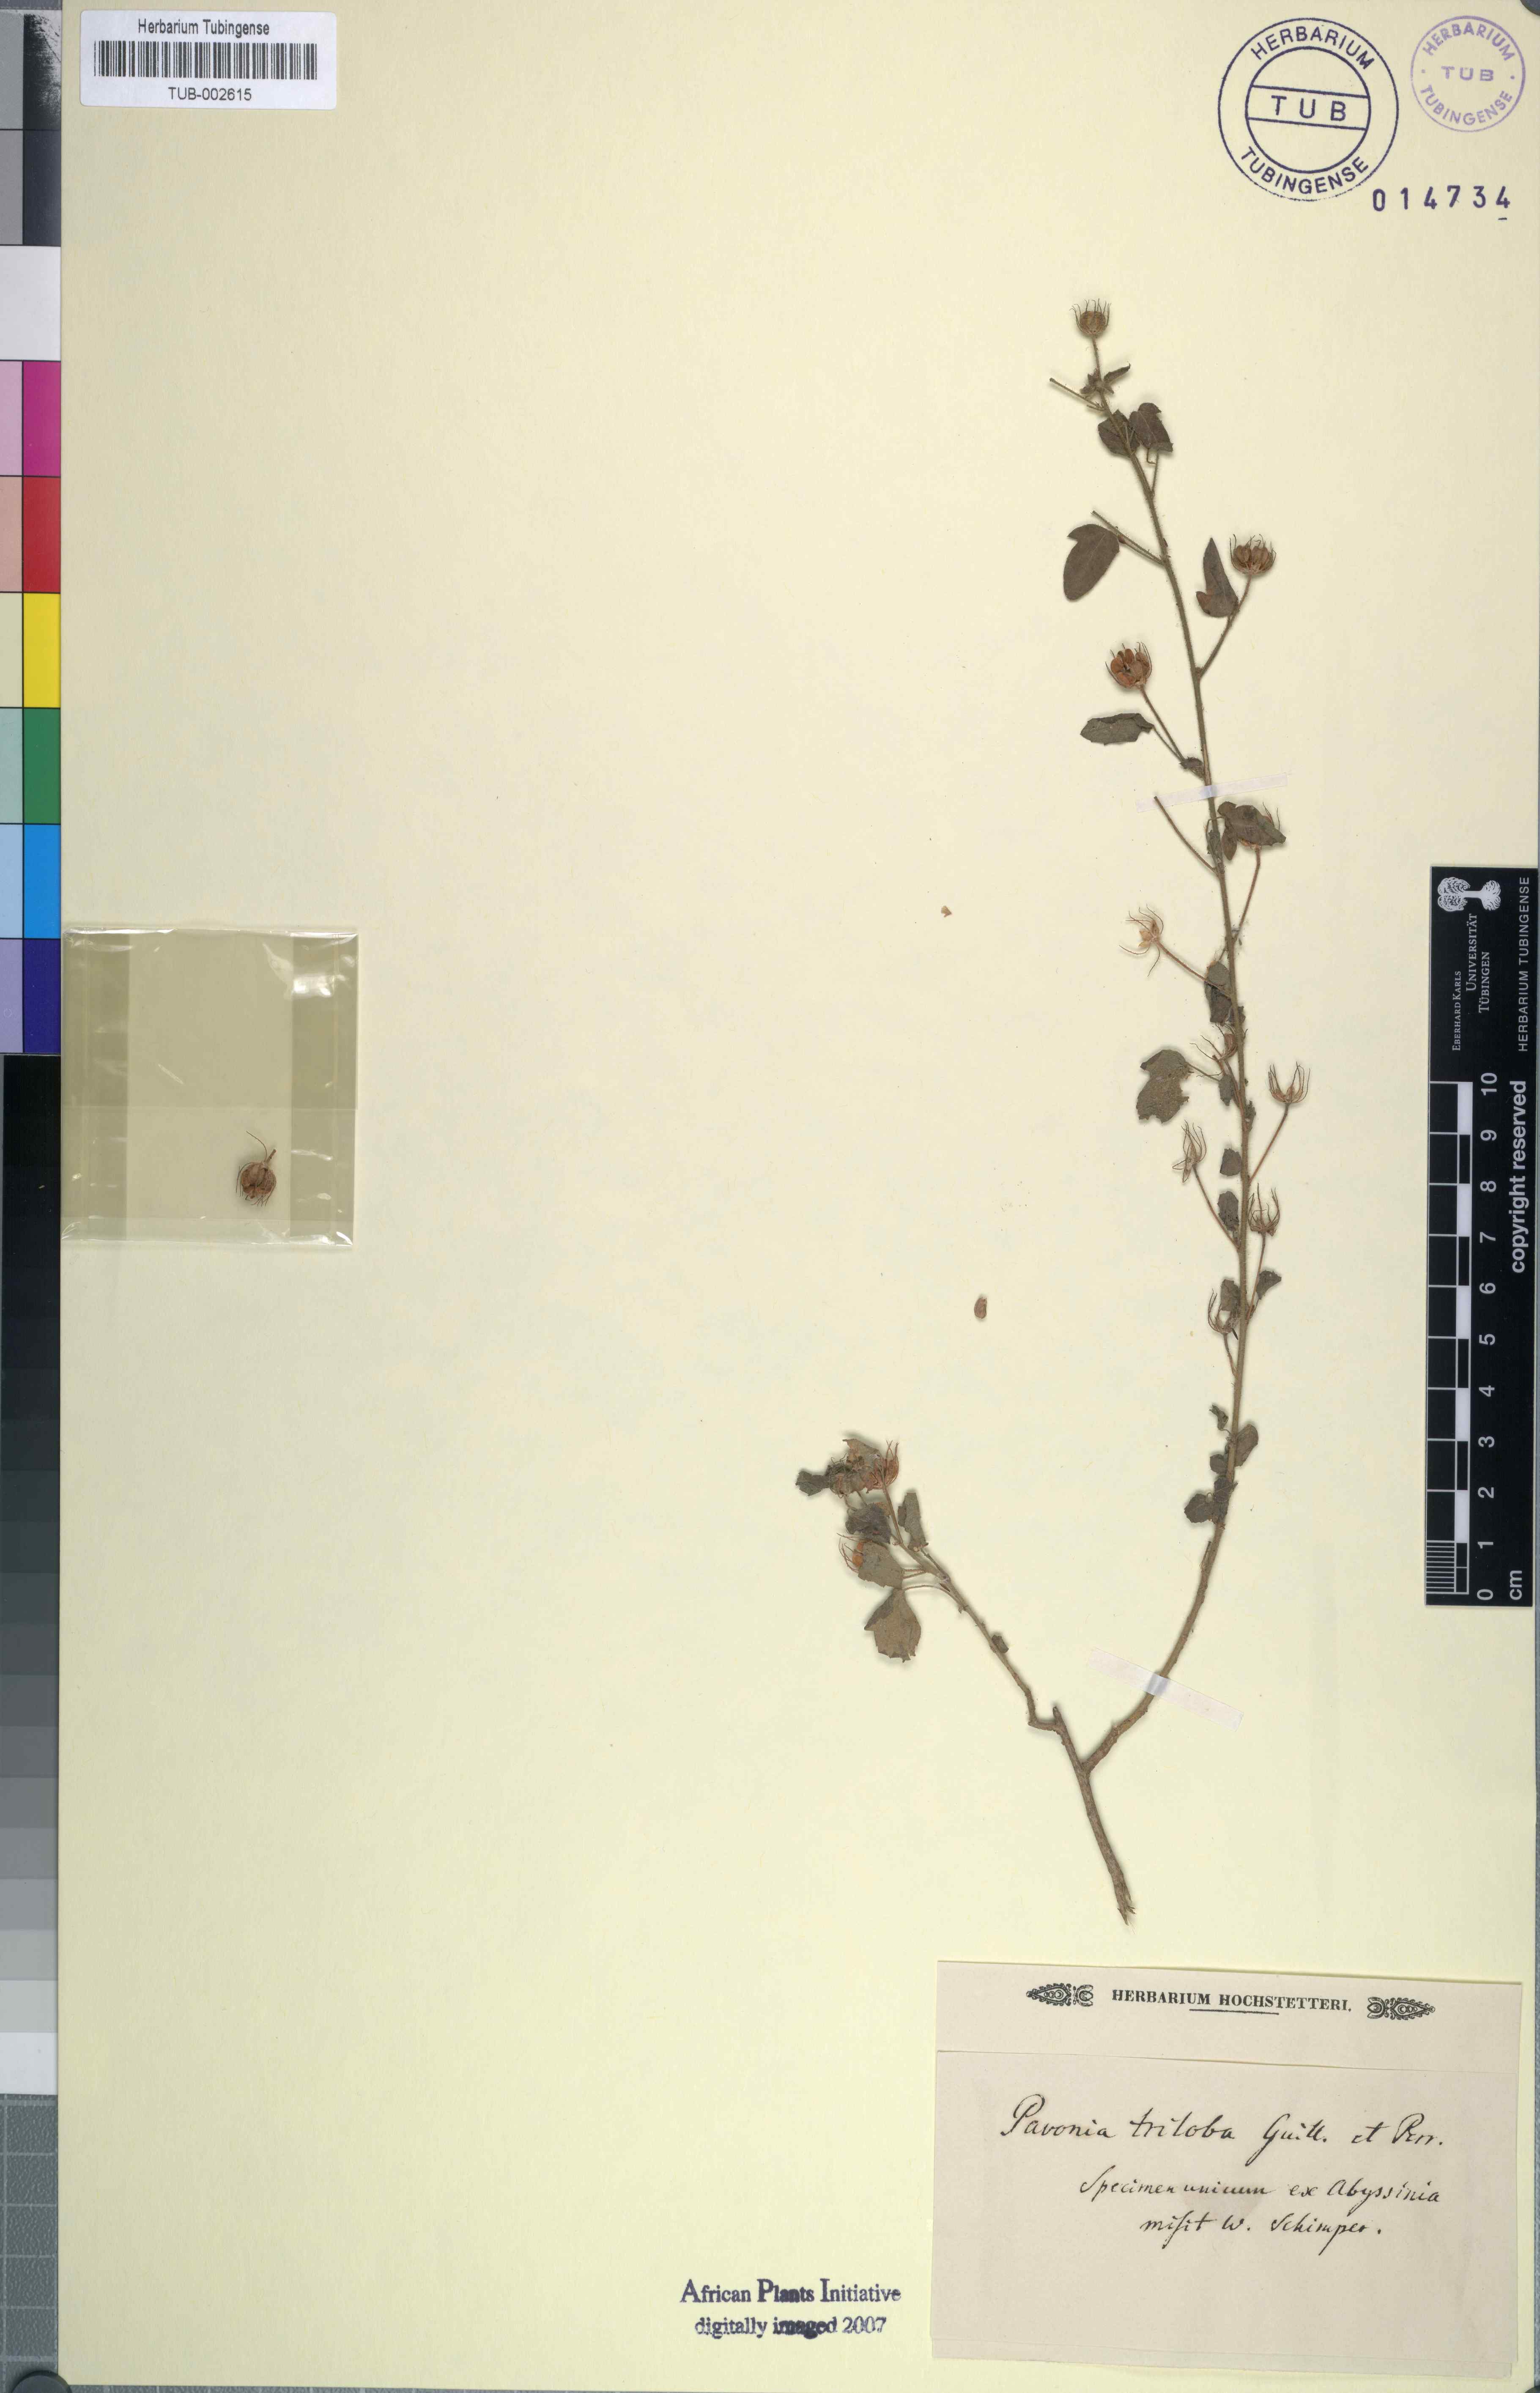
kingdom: Plantae
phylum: Tracheophyta
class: Magnoliopsida
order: Malvales
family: Malvaceae
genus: Pavonia
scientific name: Pavonia zeylanica
